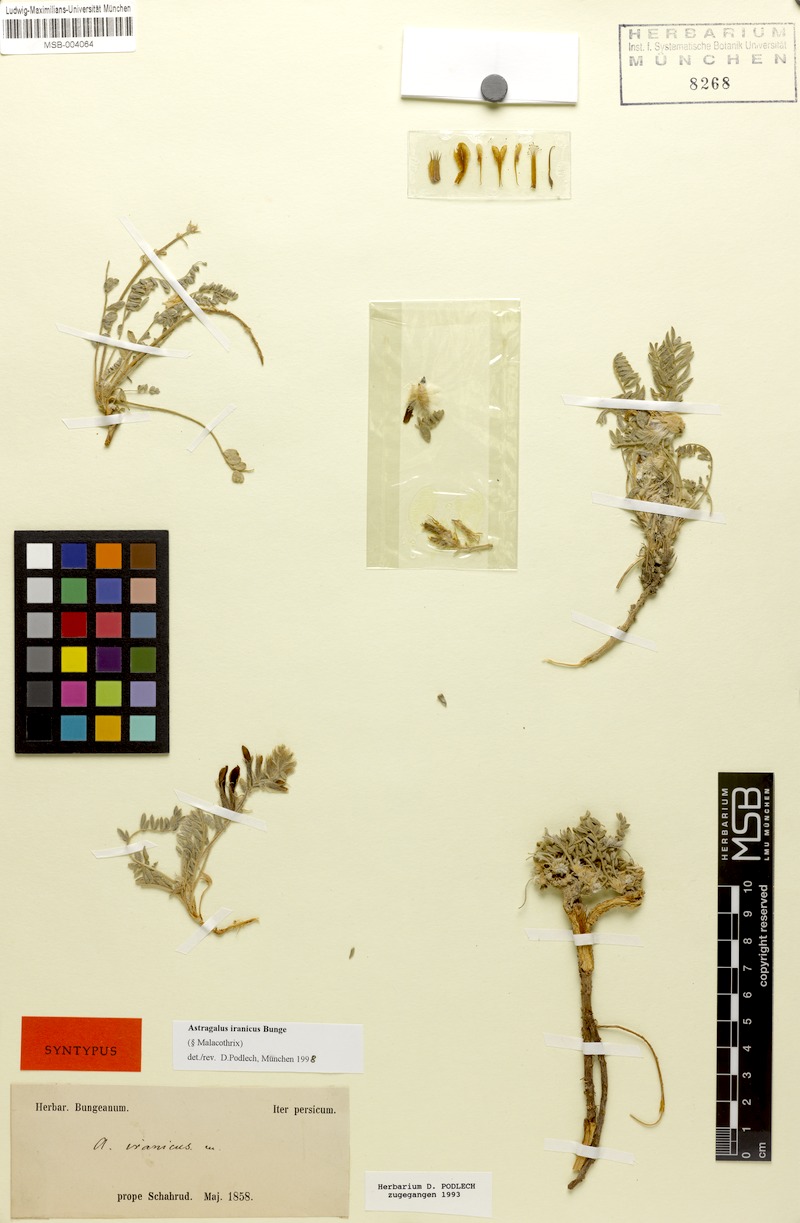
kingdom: Plantae
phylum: Tracheophyta
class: Magnoliopsida
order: Fabales
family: Fabaceae
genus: Astragalus
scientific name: Astragalus iranicus
